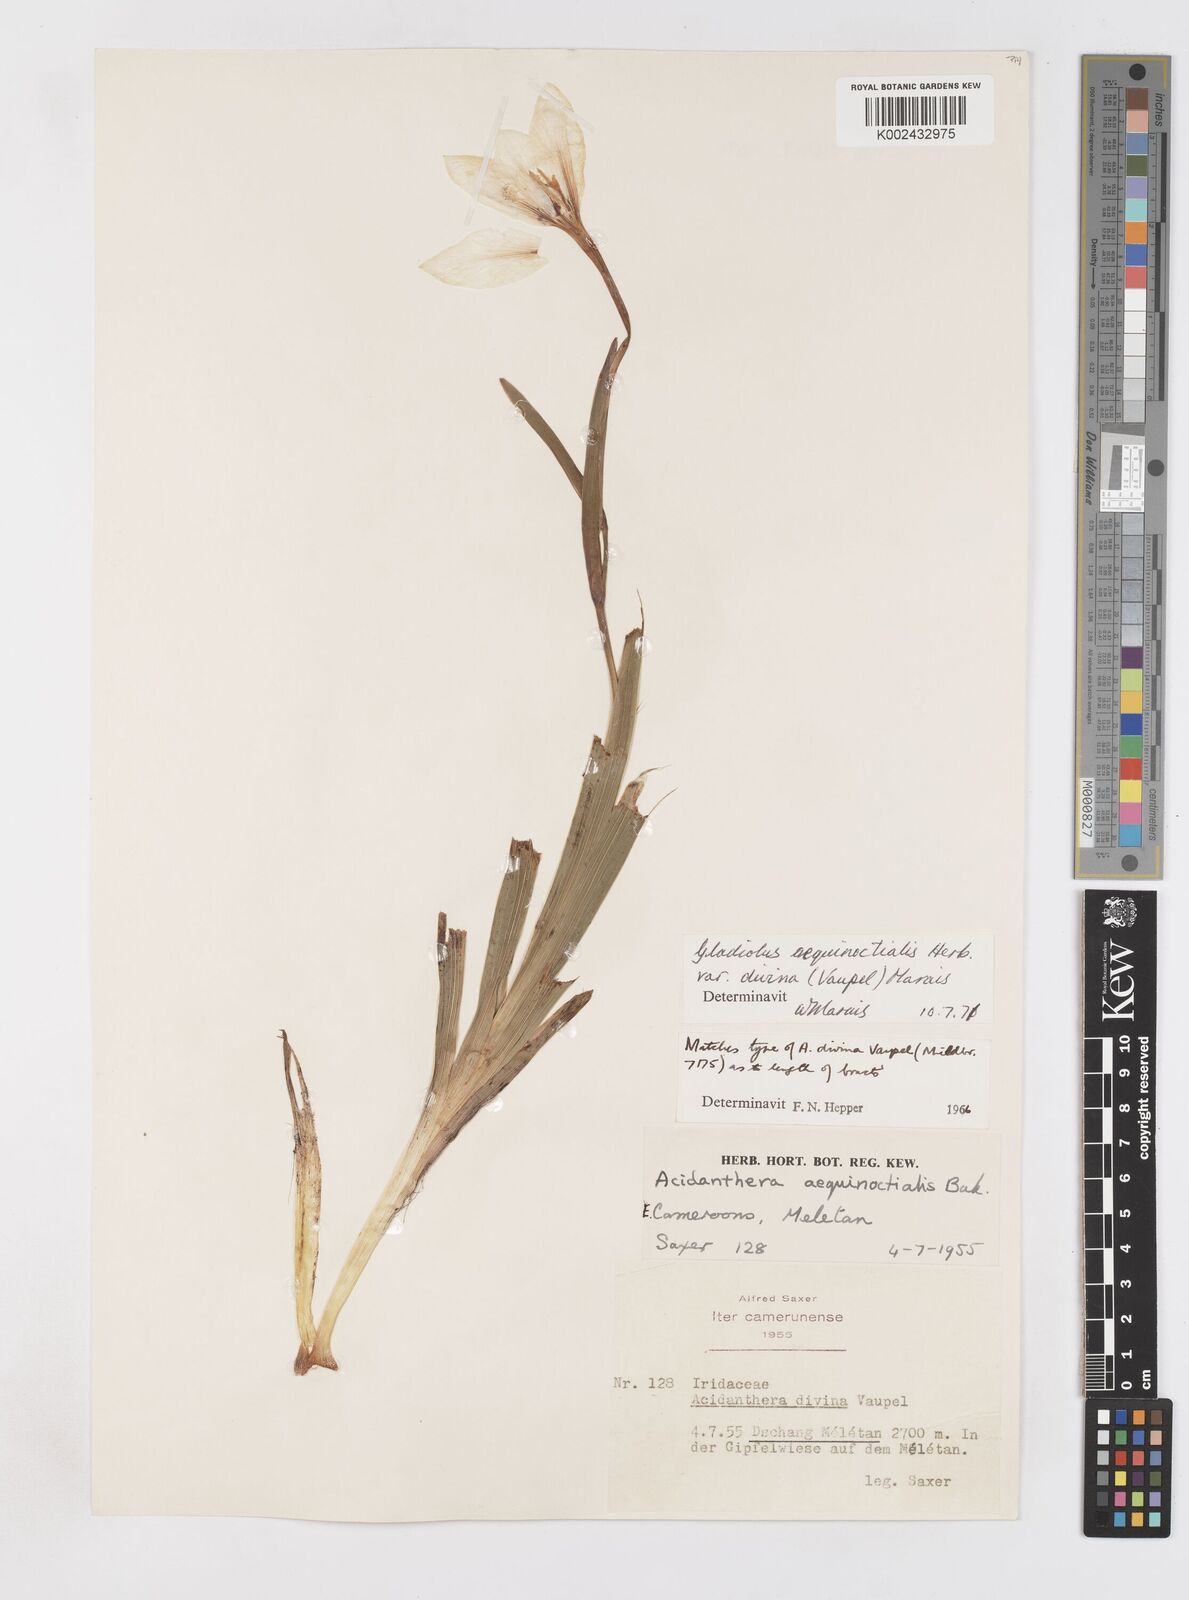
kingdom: Plantae
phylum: Tracheophyta
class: Liliopsida
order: Asparagales
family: Iridaceae
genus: Gladiolus
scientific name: Gladiolus aequinoctialis
